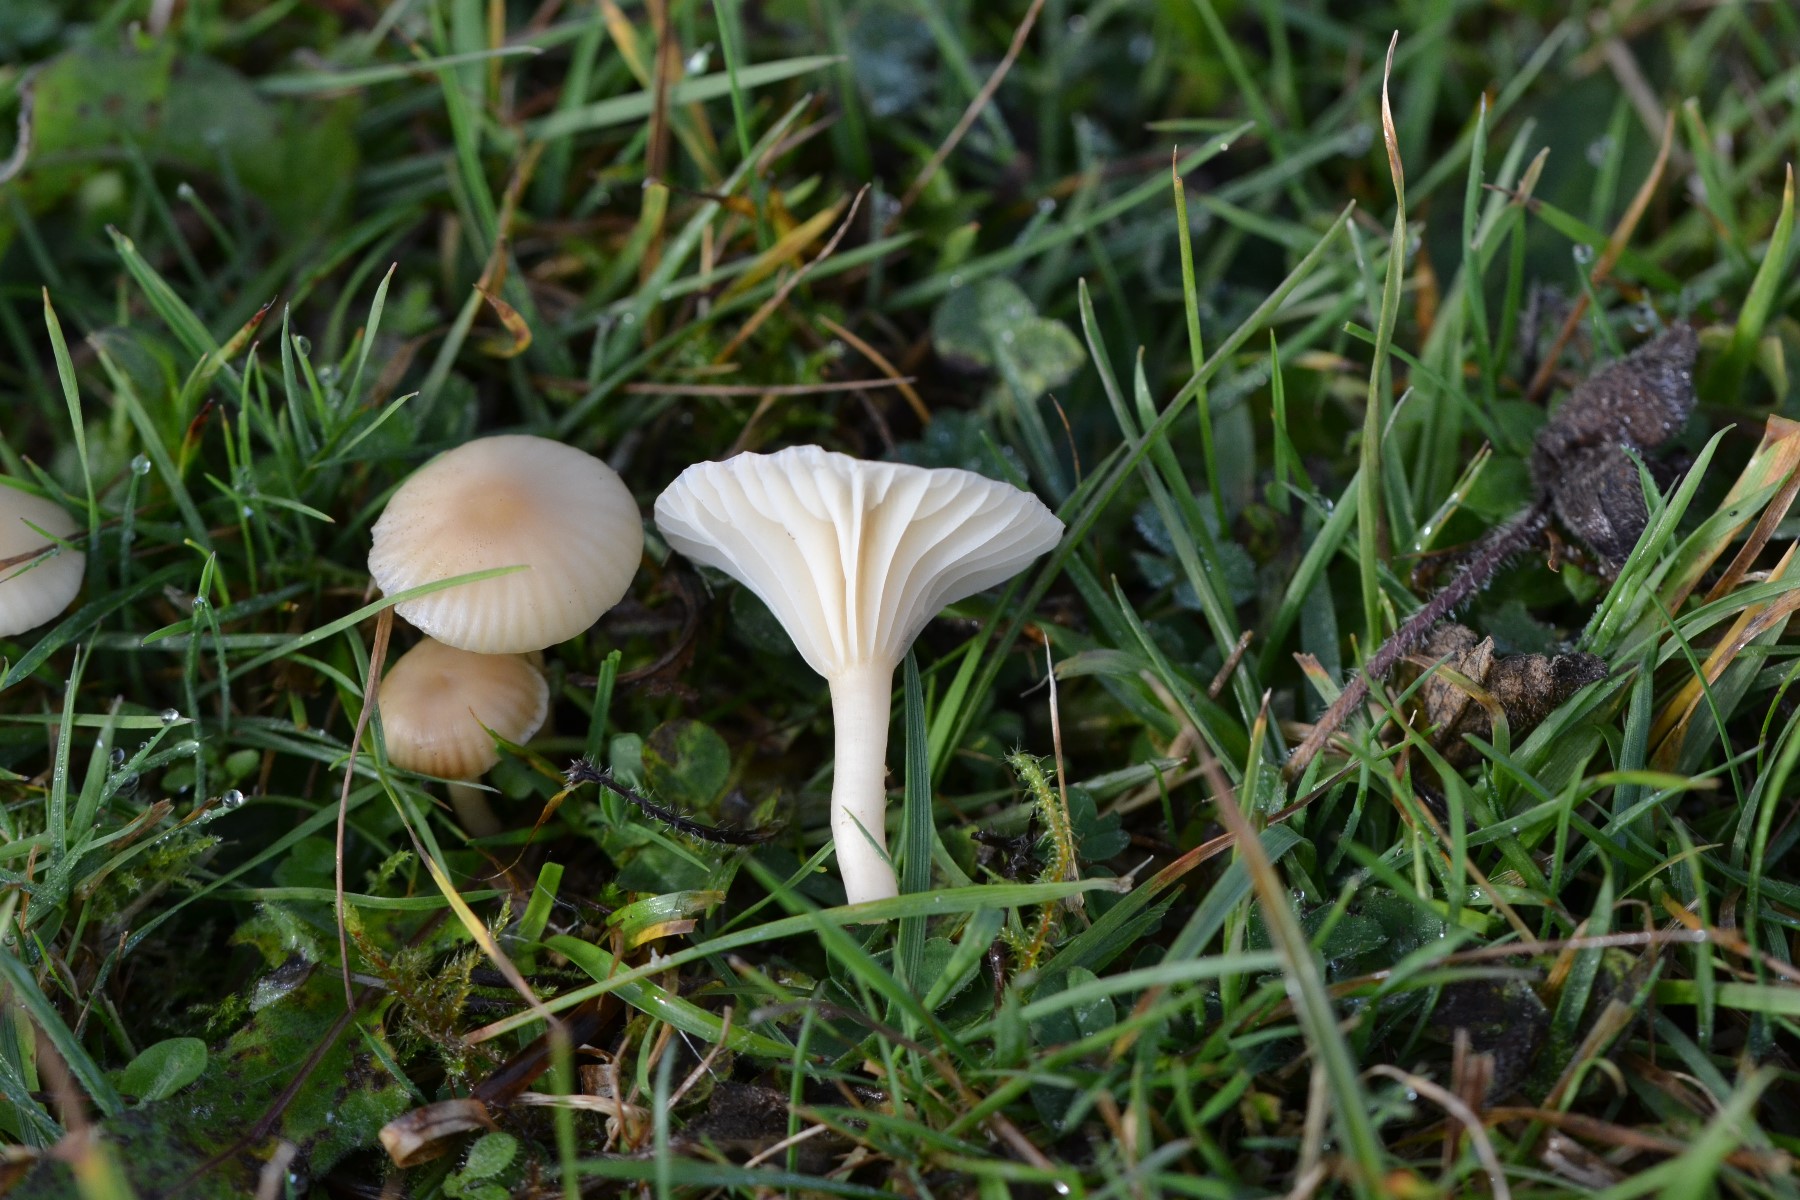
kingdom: Fungi
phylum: Basidiomycota
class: Agaricomycetes
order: Agaricales
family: Hygrophoraceae
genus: Cuphophyllus
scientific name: Cuphophyllus
